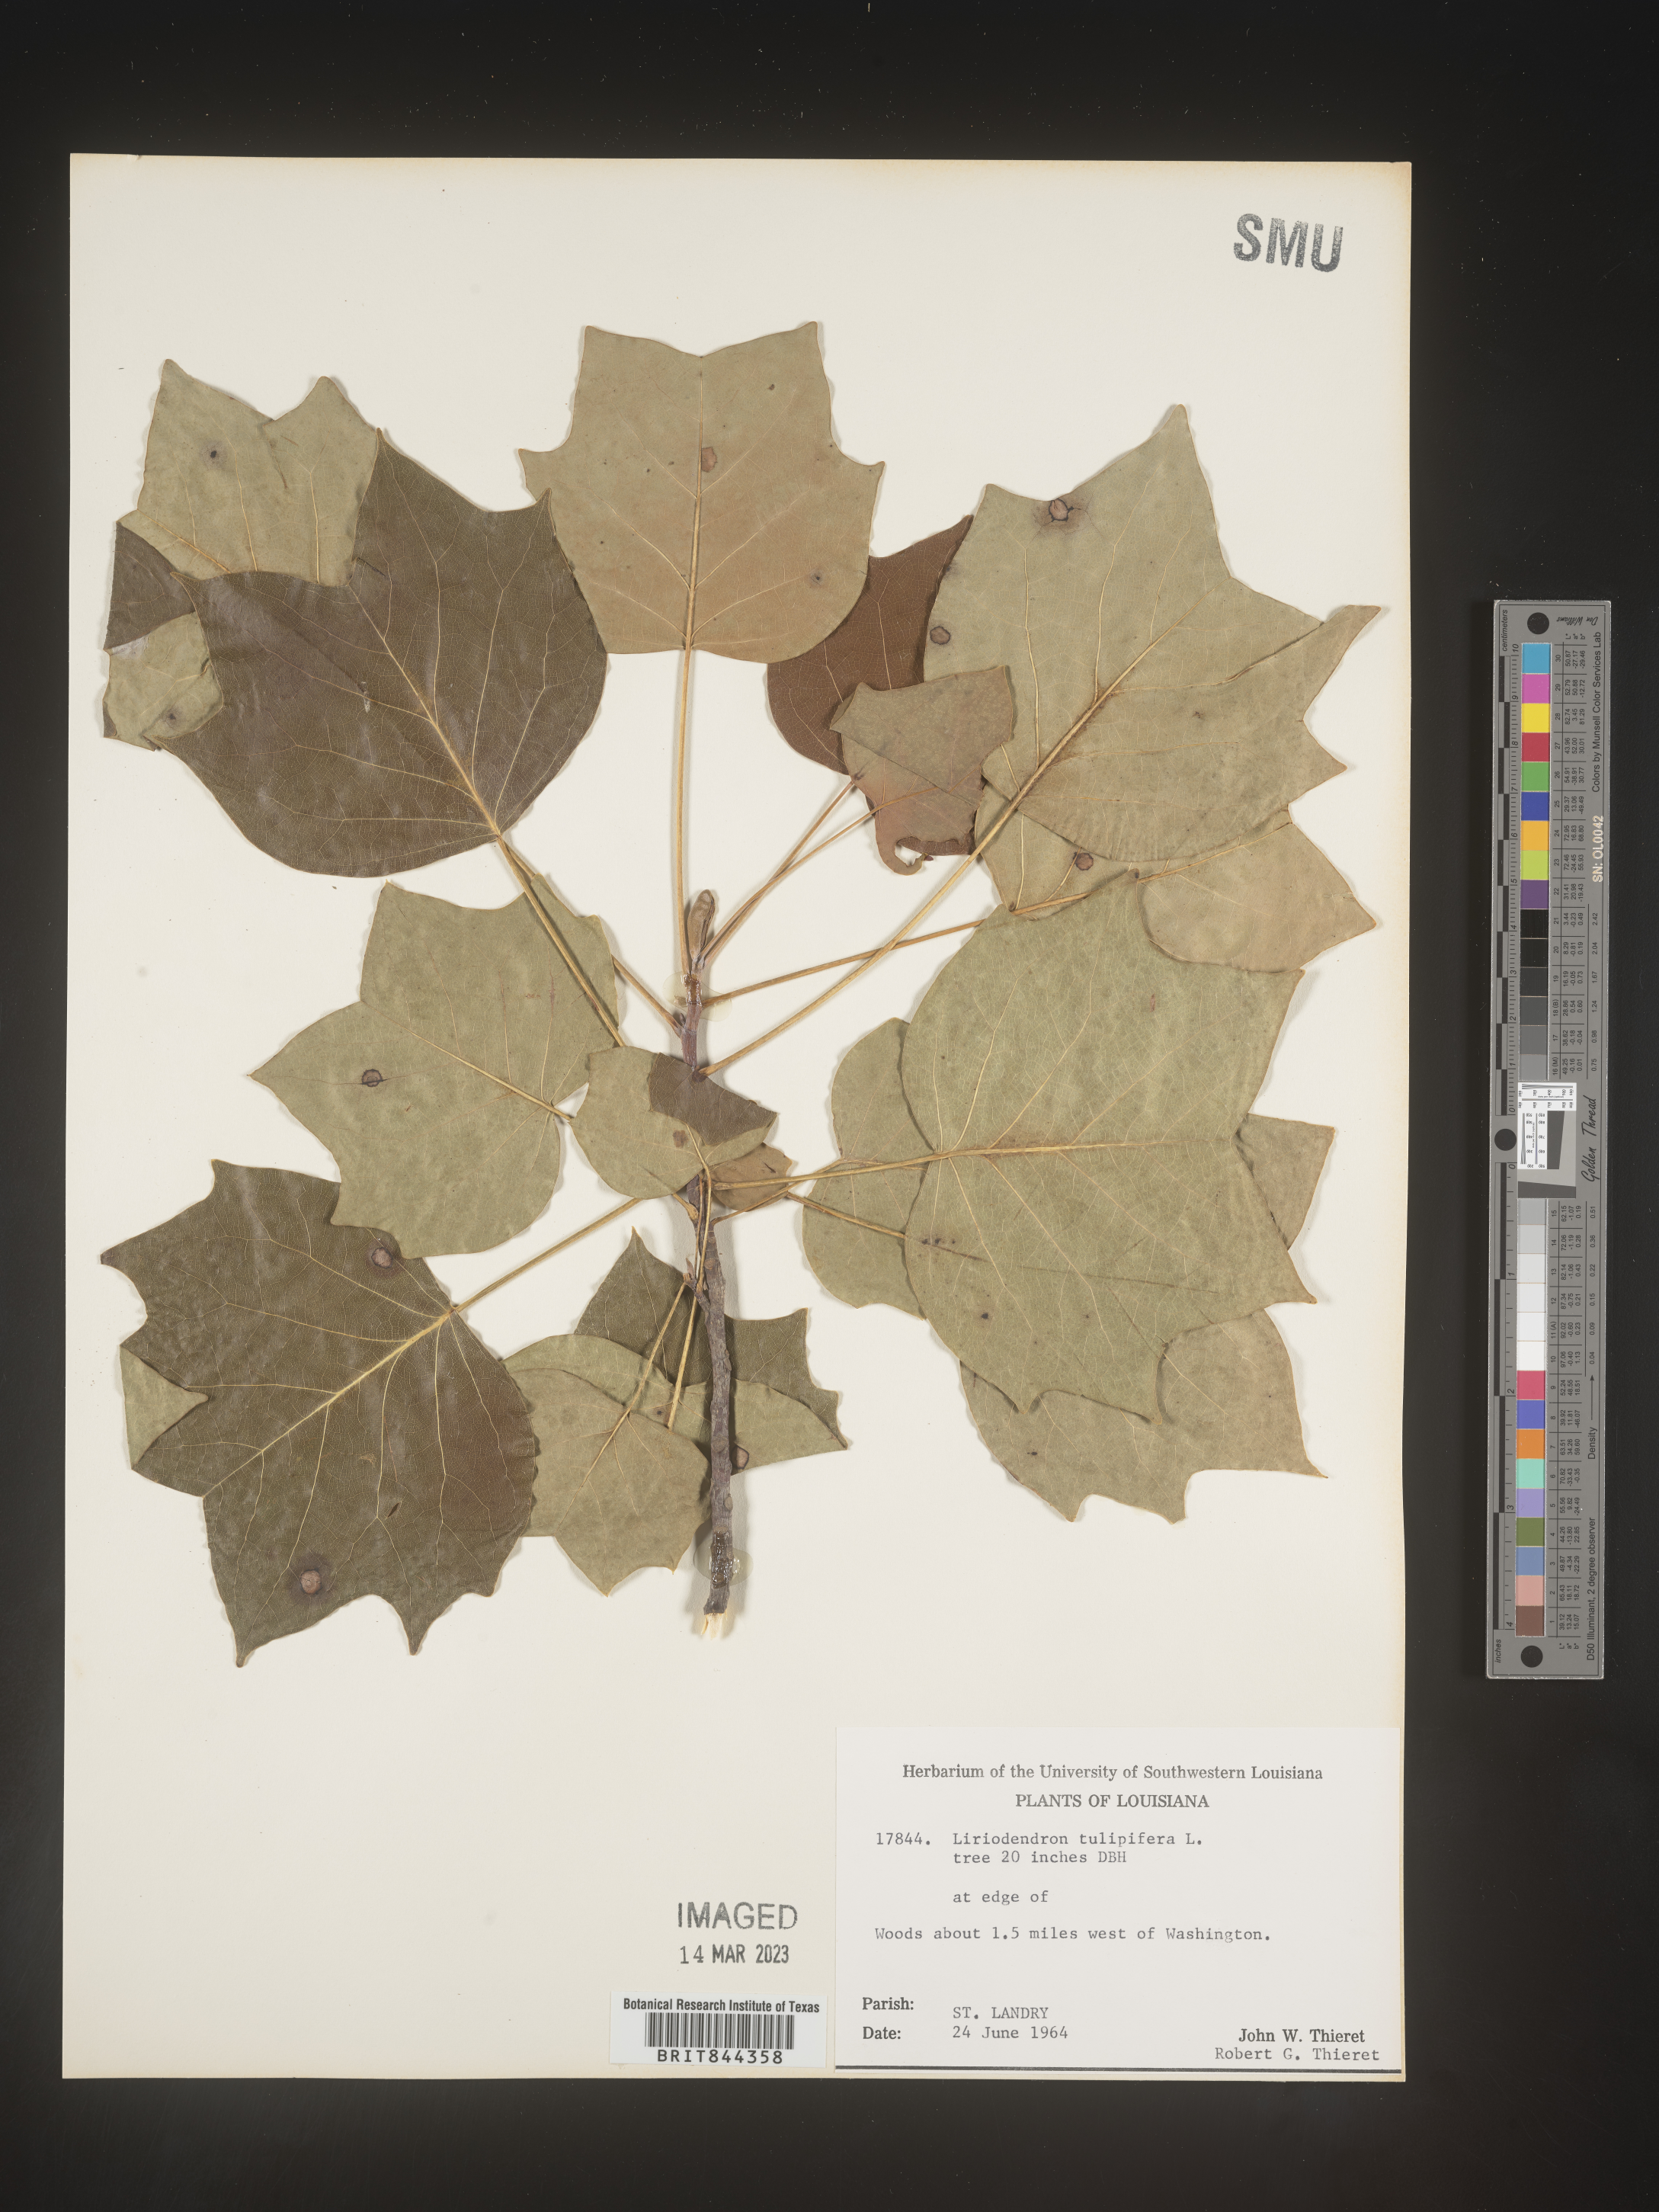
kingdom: Plantae
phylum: Tracheophyta
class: Magnoliopsida
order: Magnoliales
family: Magnoliaceae
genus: Liriodendron
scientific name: Liriodendron tulipifera
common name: Tulip tree
